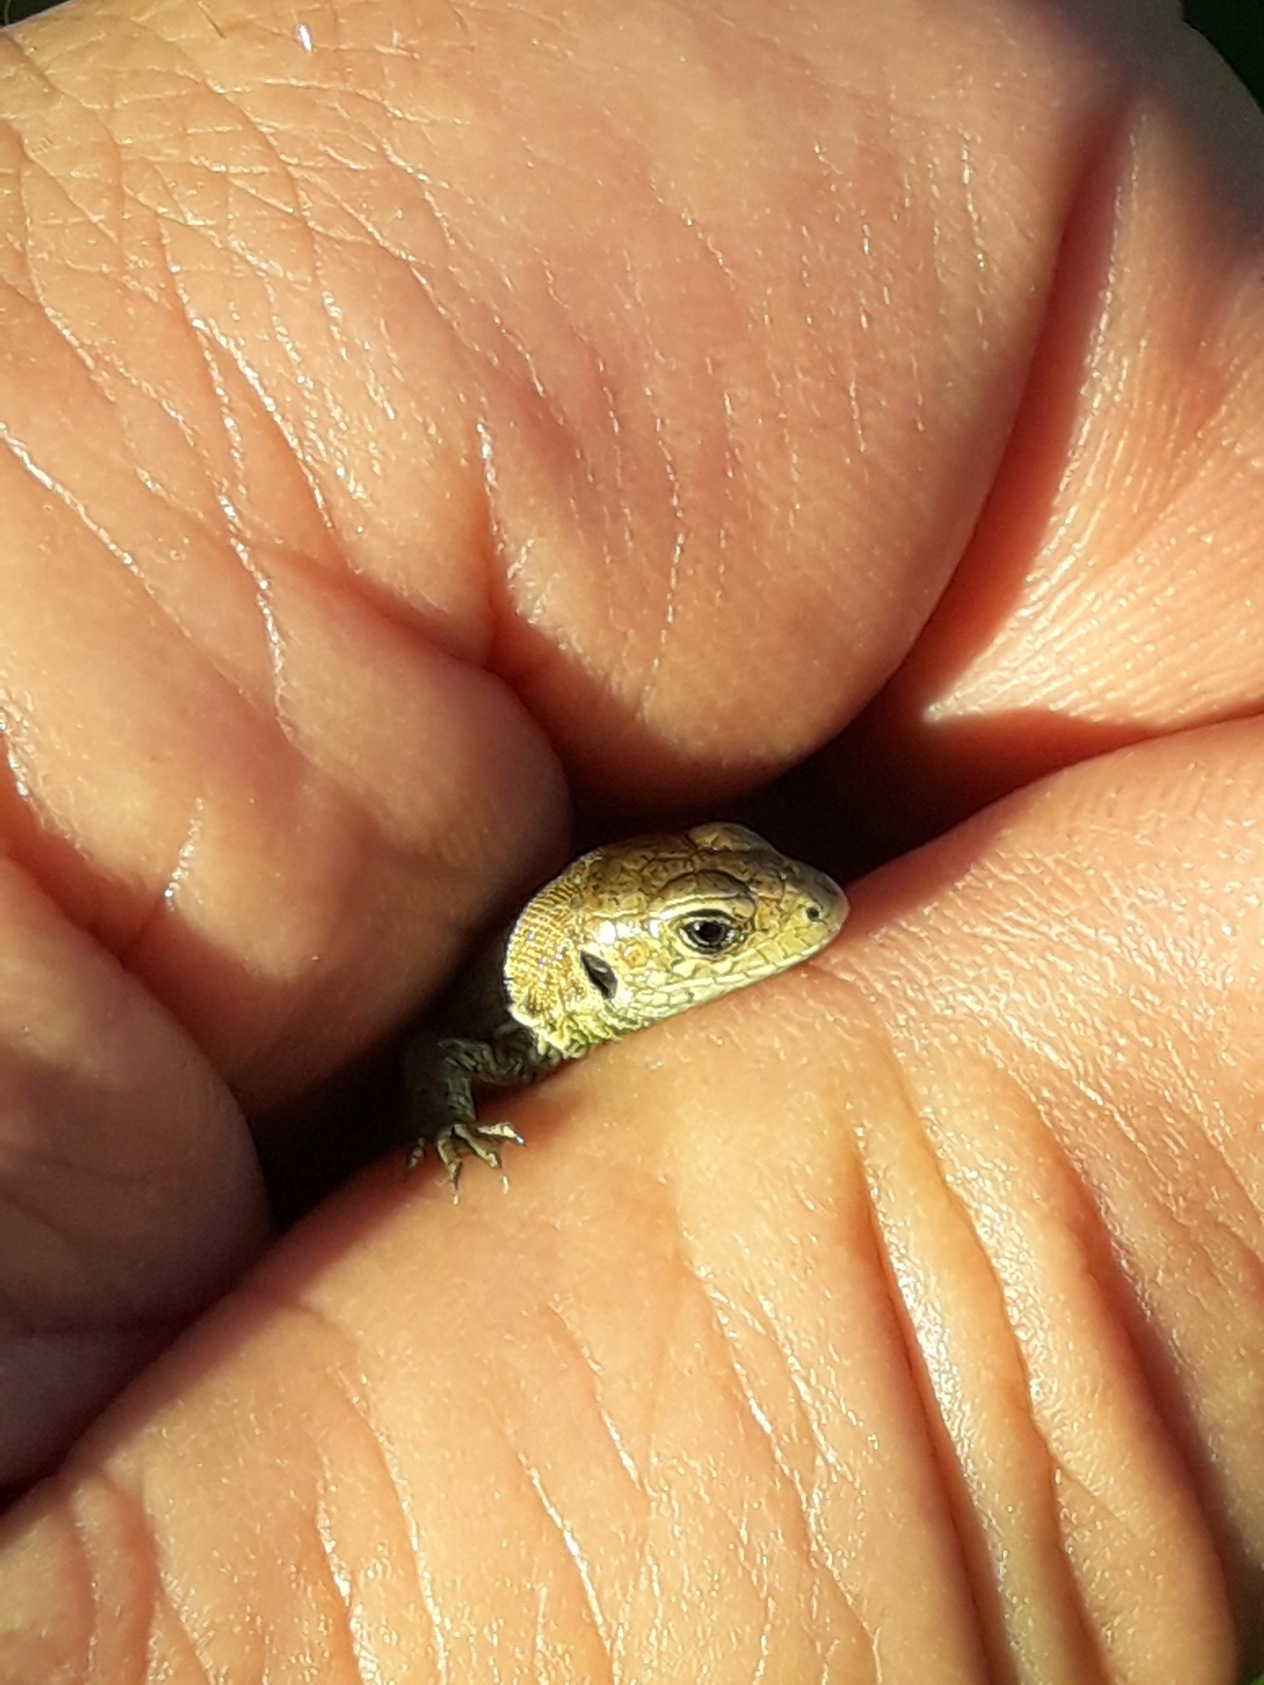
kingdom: Animalia
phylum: Chordata
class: Squamata
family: Lacertidae
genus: Lacerta
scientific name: Lacerta agilis
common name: Markfirben
